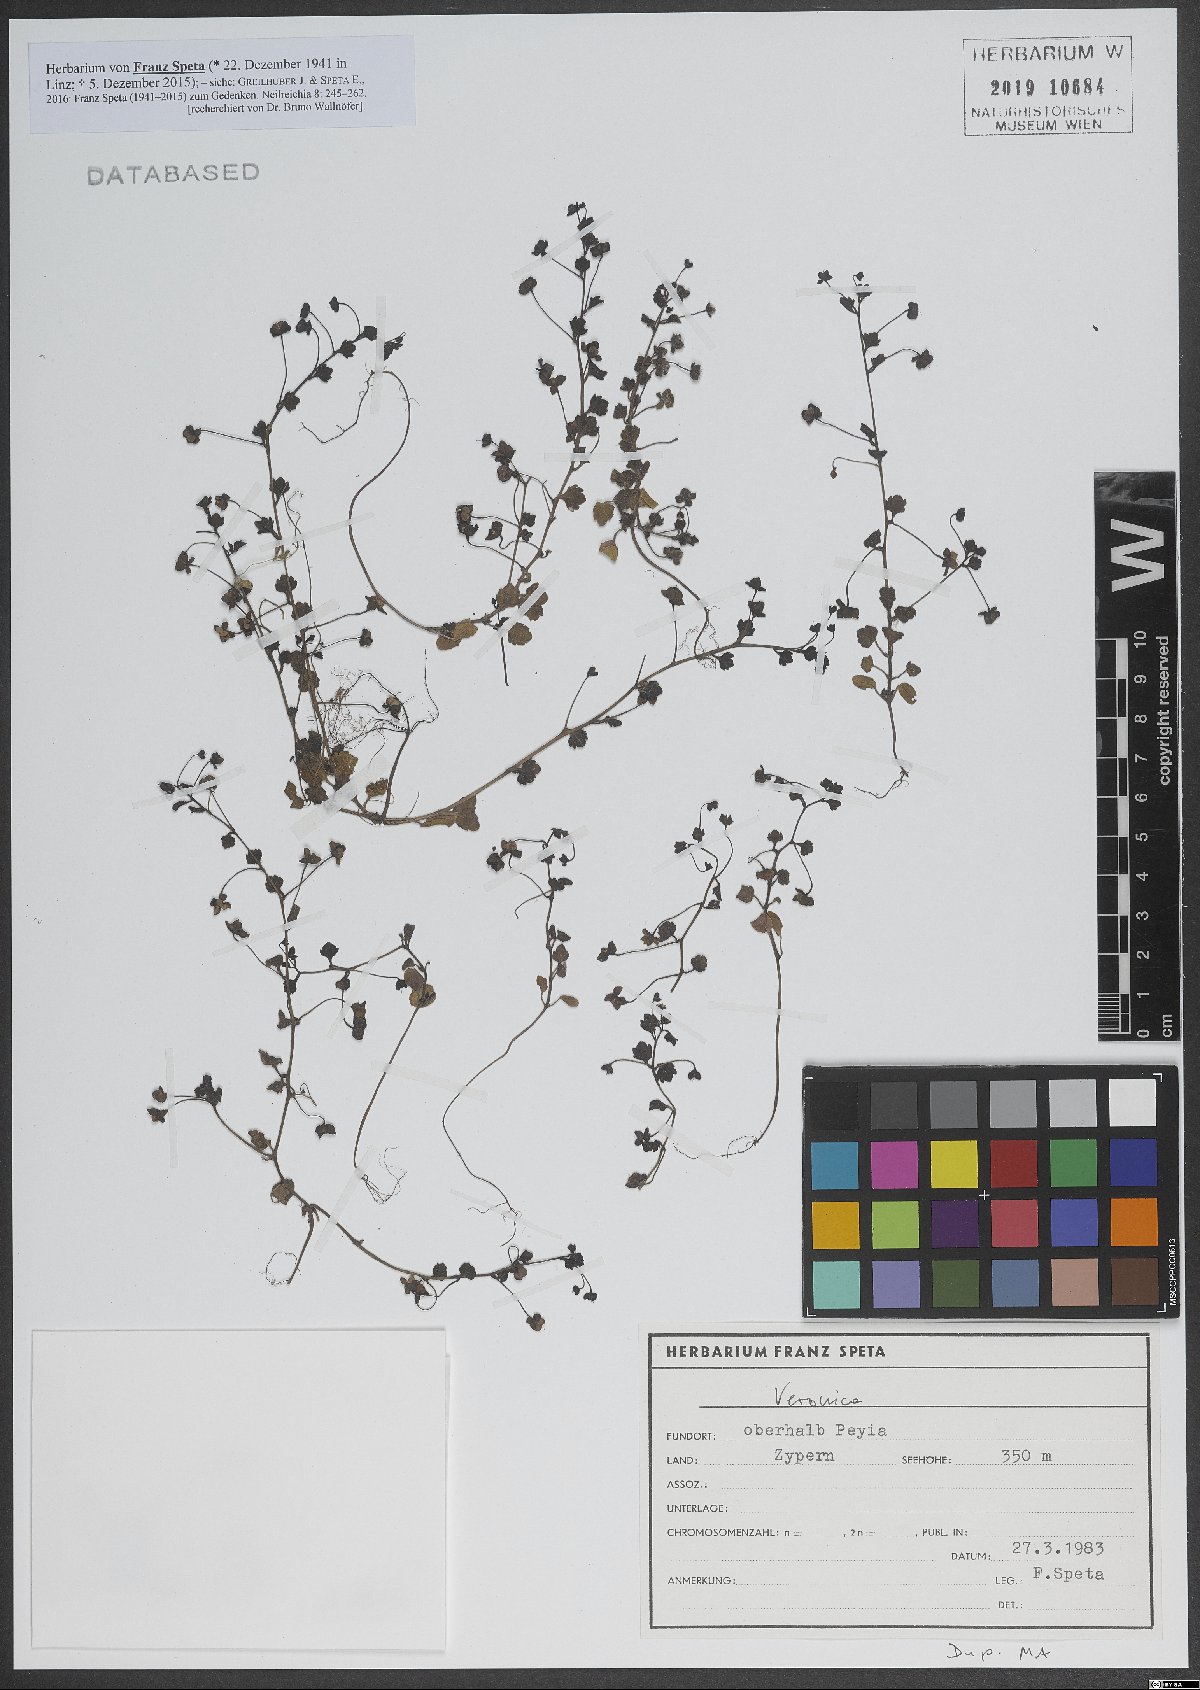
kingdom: Plantae
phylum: Tracheophyta
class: Magnoliopsida
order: Lamiales
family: Plantaginaceae
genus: Veronica
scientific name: Veronica
